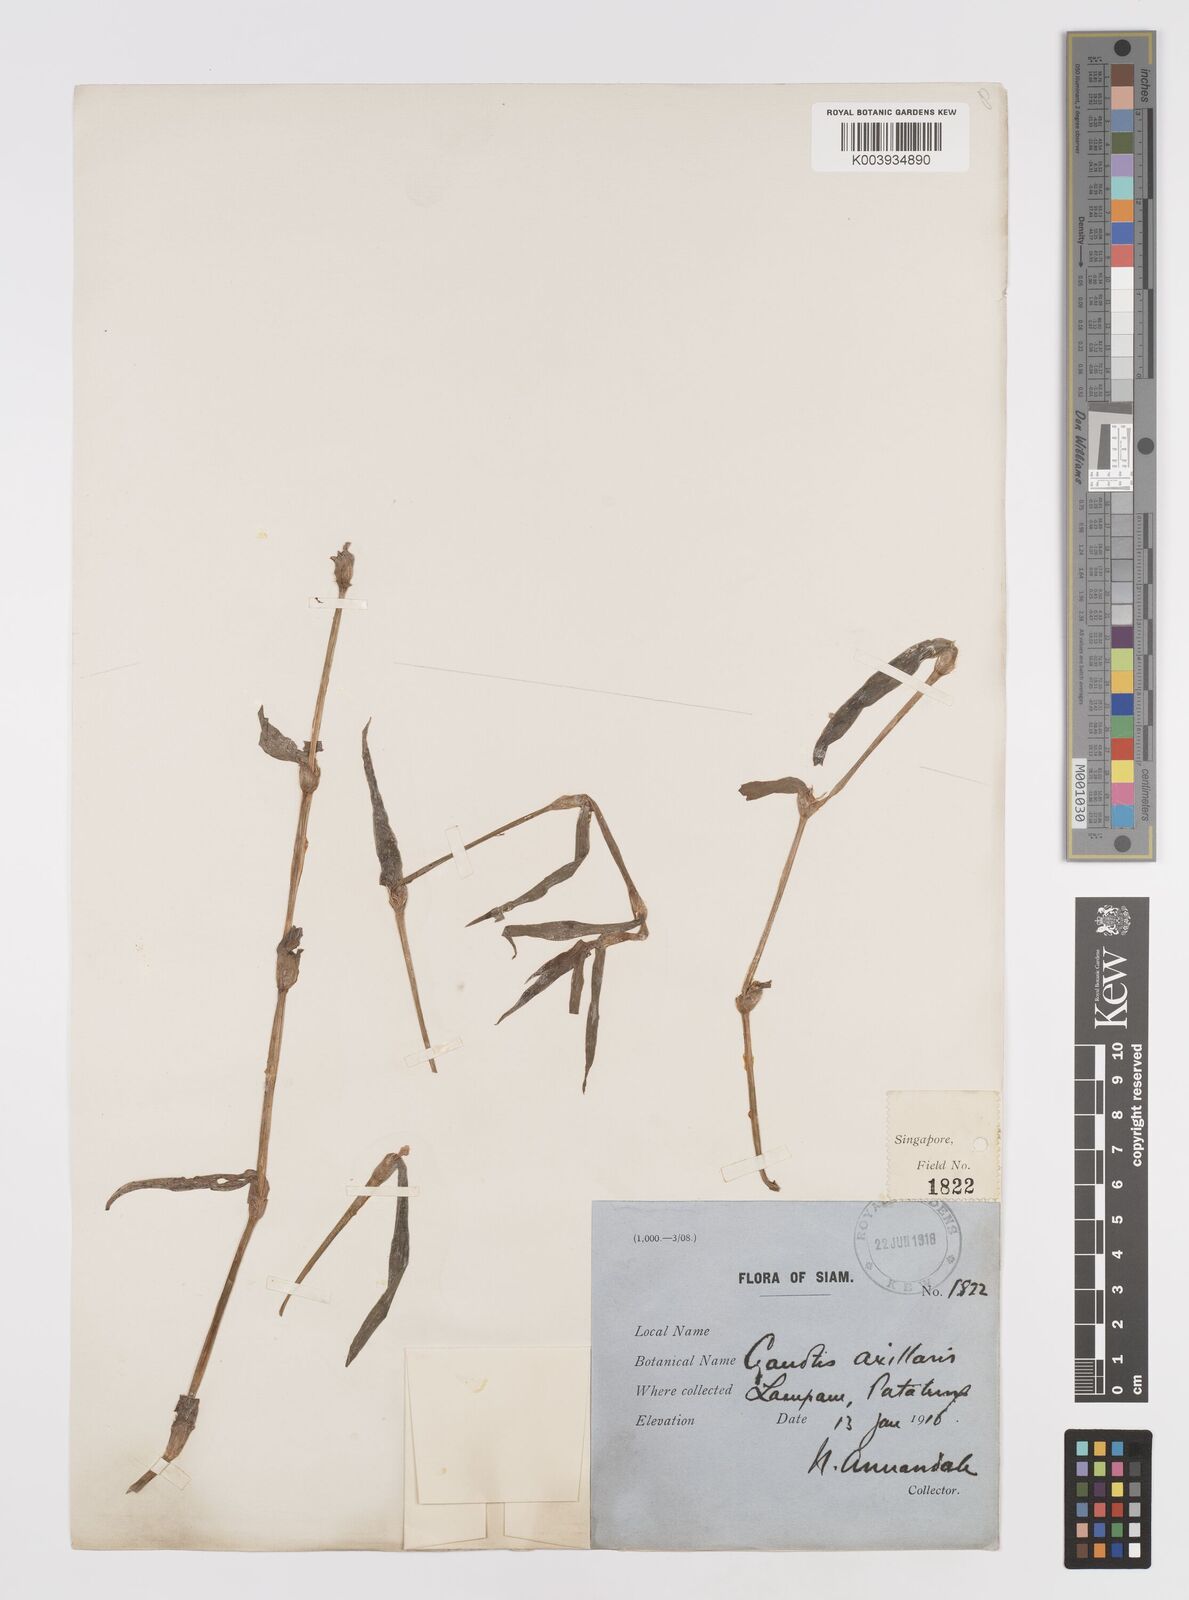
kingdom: Plantae
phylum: Tracheophyta
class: Liliopsida
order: Commelinales
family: Commelinaceae
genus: Cyanotis
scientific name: Cyanotis axillaris
